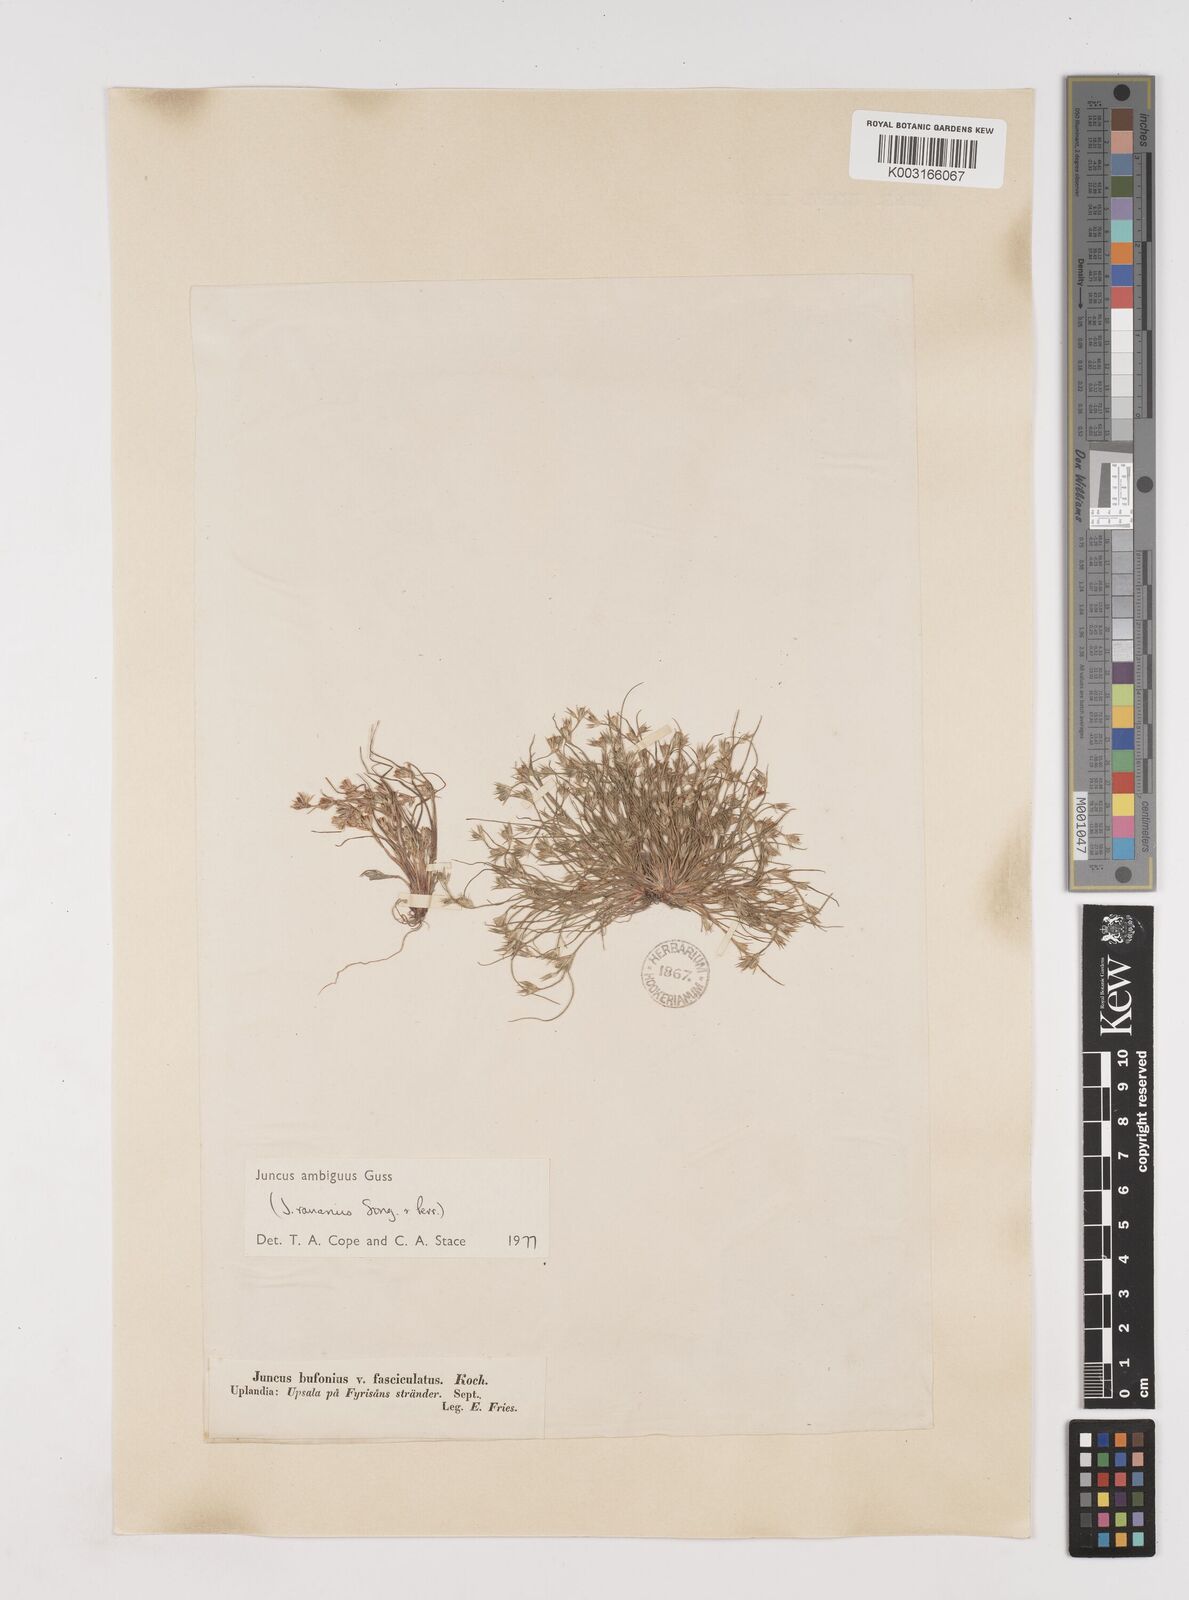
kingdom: Plantae
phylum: Tracheophyta
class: Liliopsida
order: Poales
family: Juncaceae
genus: Juncus
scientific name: Juncus hybridus
